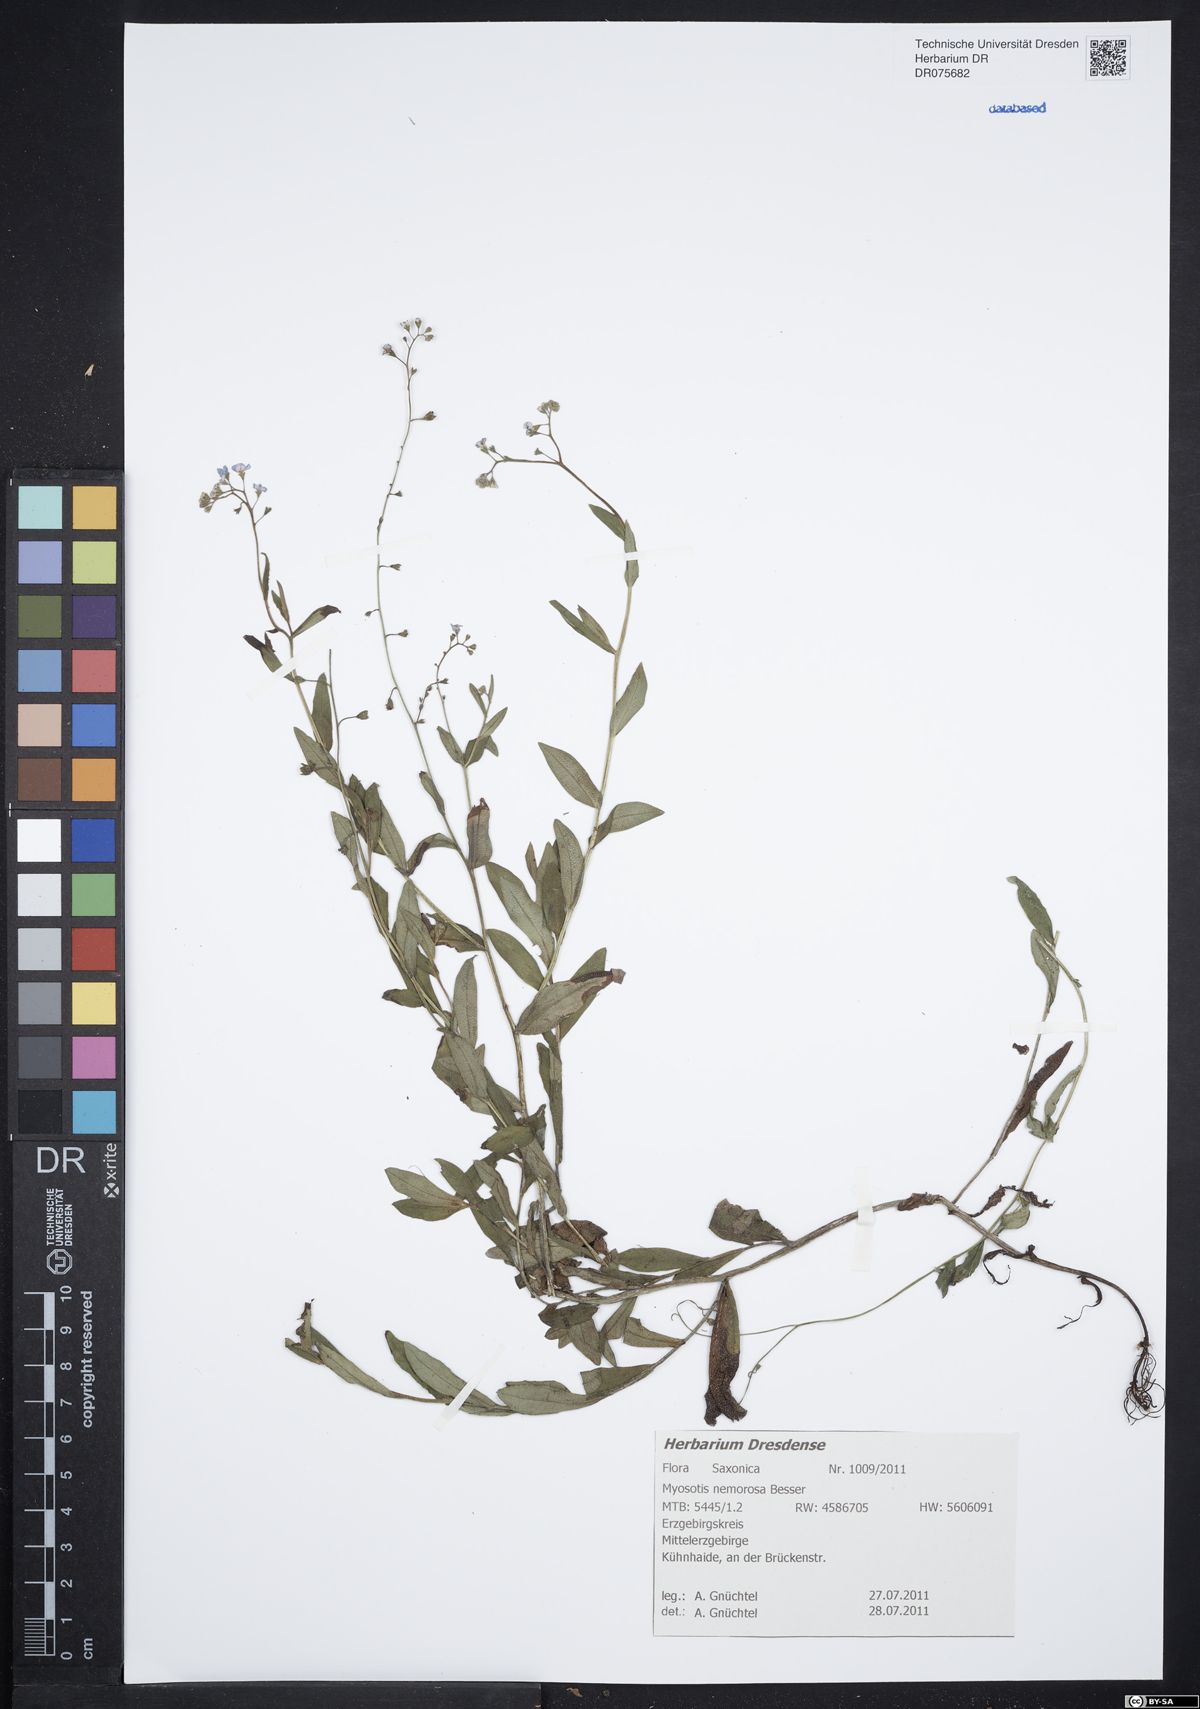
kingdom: Plantae
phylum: Tracheophyta
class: Magnoliopsida
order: Boraginales
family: Boraginaceae
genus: Myosotis
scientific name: Myosotis nemorosa
